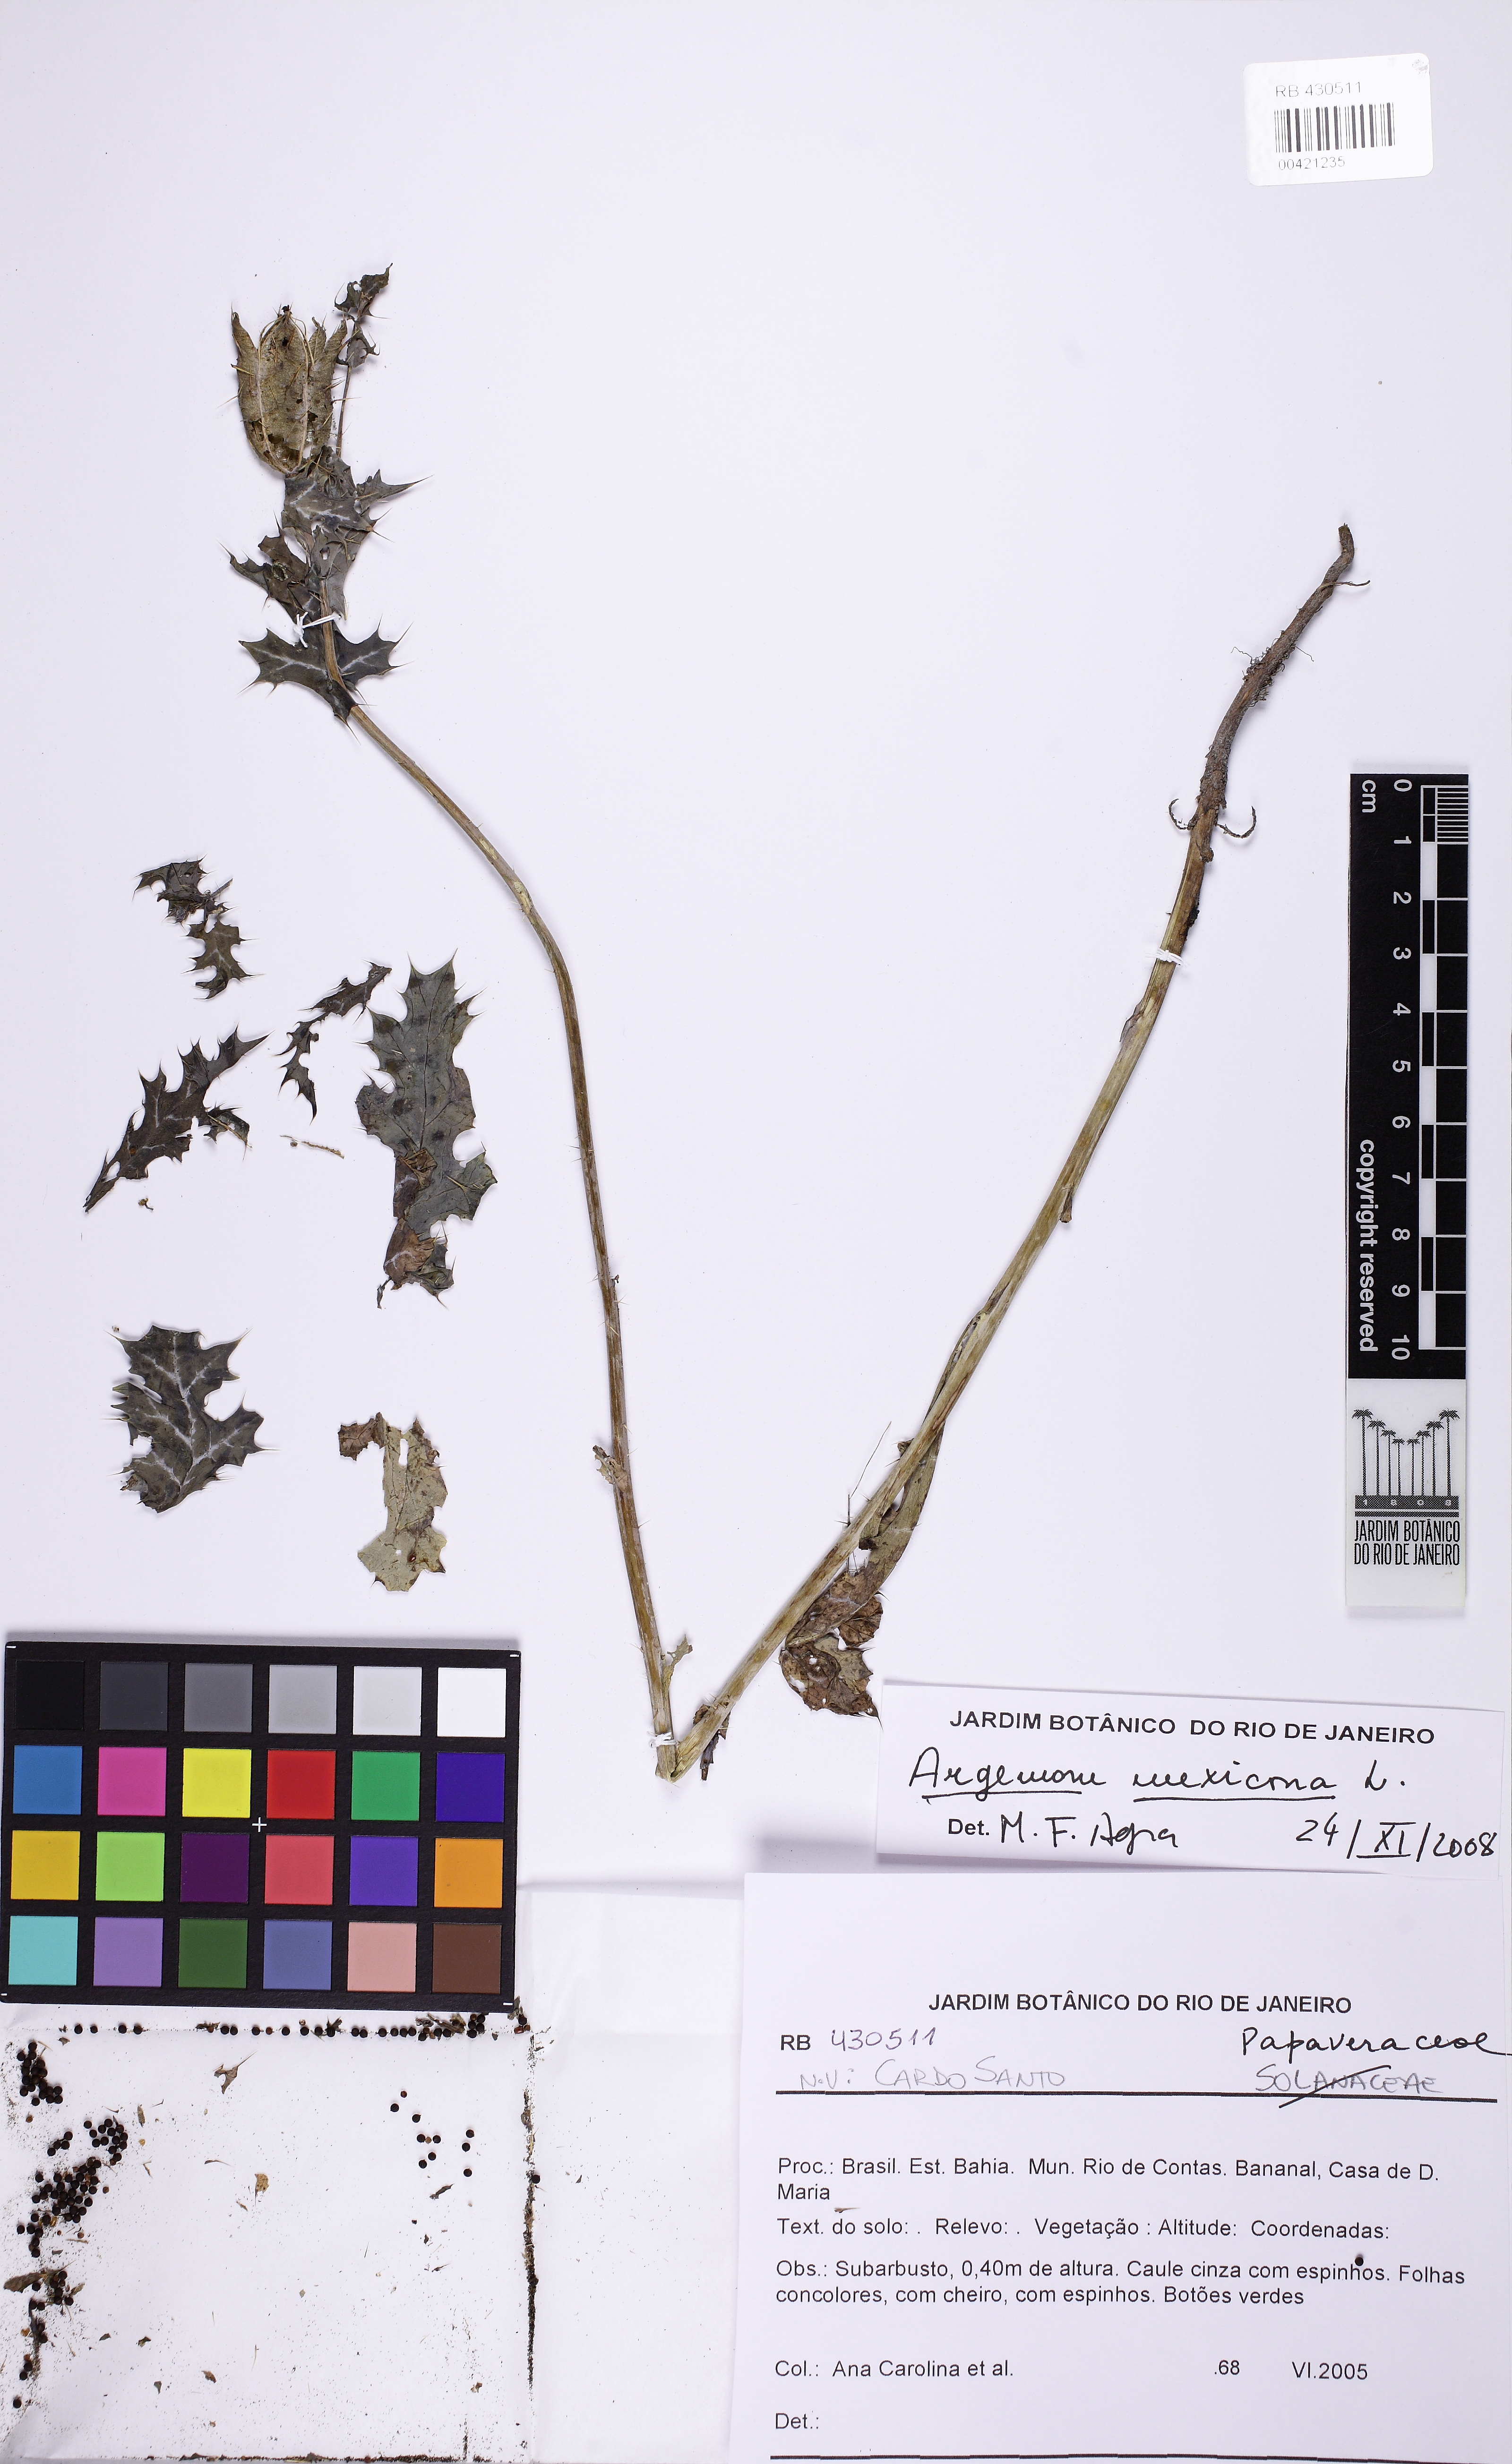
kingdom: Plantae
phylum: Tracheophyta
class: Magnoliopsida
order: Ranunculales
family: Papaveraceae
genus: Argemone
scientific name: Argemone mexicana
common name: Mexican poppy
